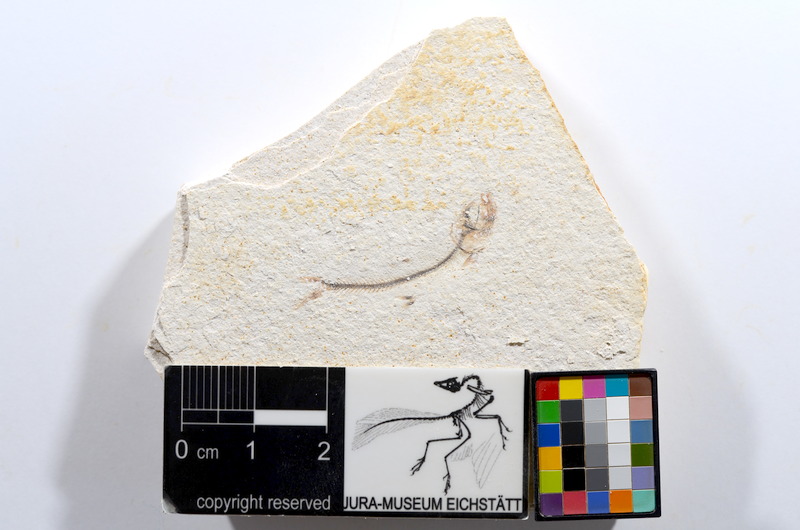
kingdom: Animalia
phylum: Chordata
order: Salmoniformes
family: Orthogonikleithridae
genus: Orthogonikleithrus
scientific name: Orthogonikleithrus hoelli
